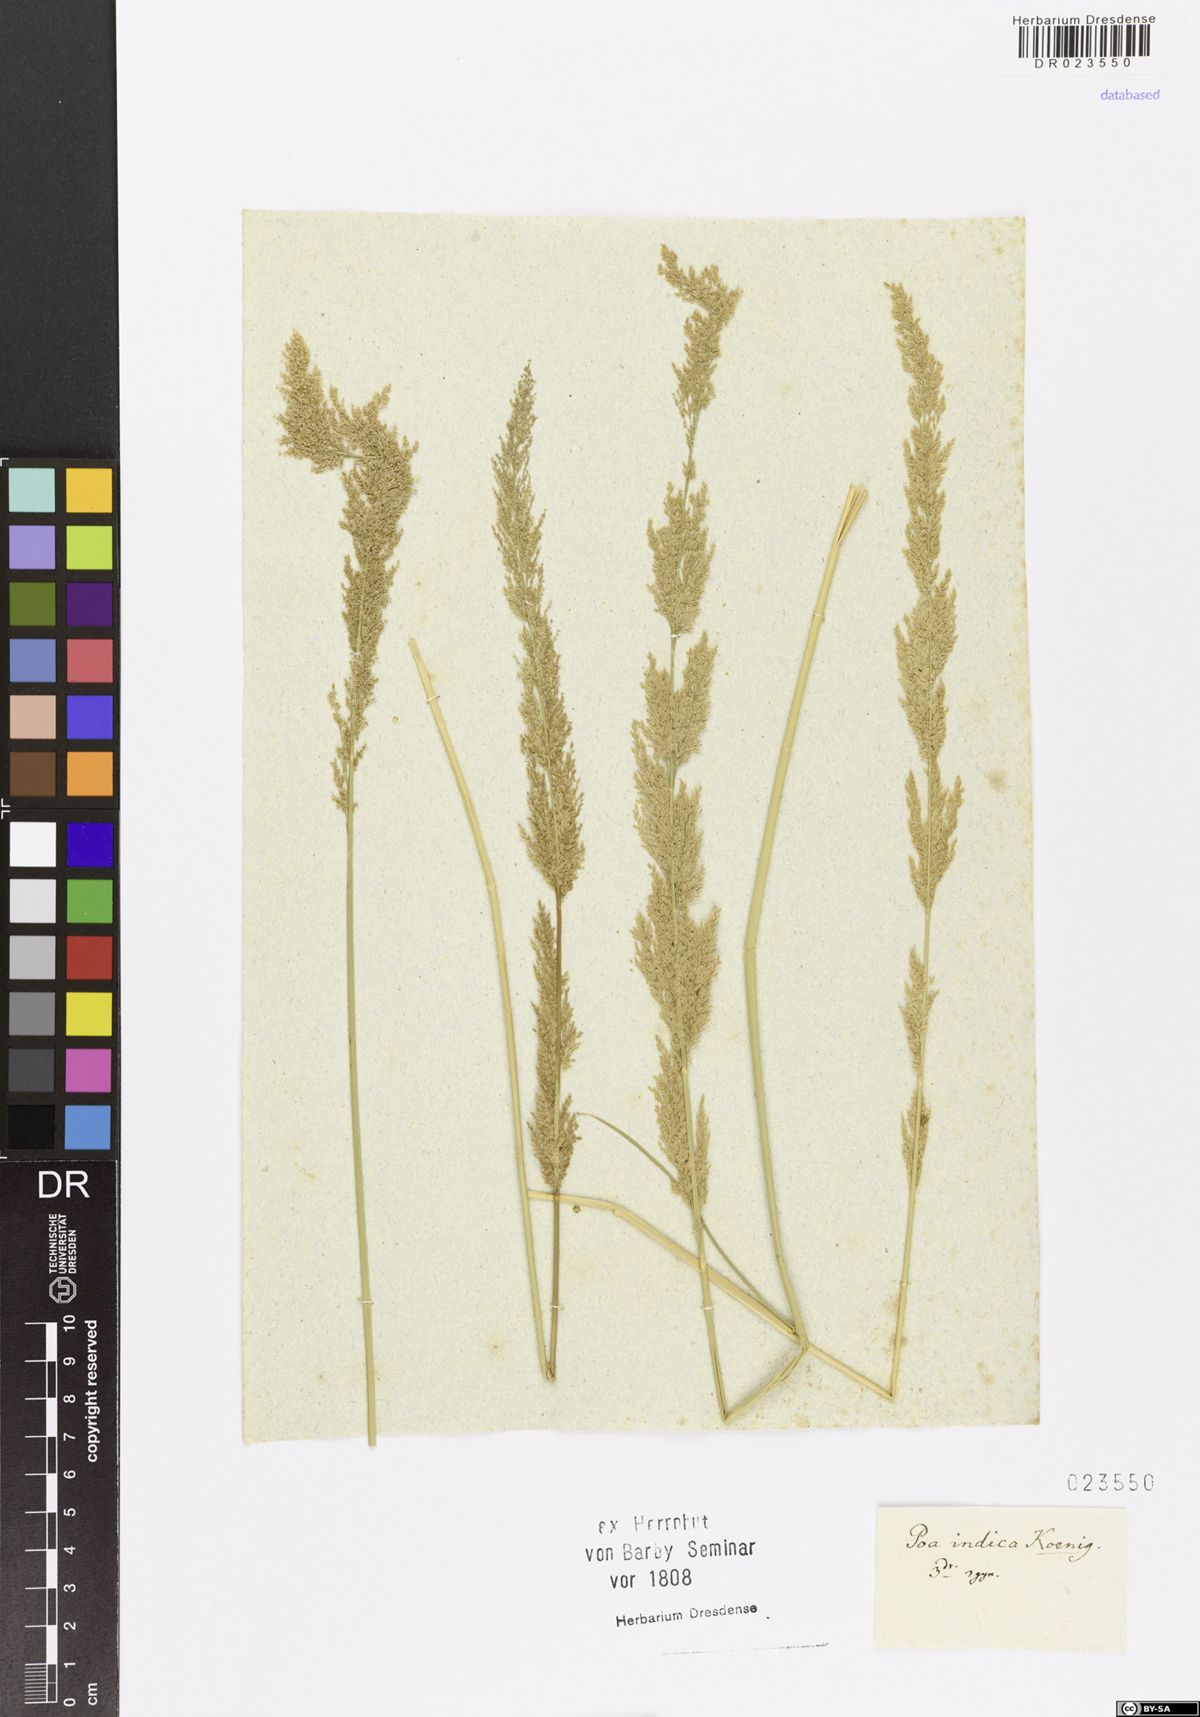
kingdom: Plantae
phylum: Tracheophyta
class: Liliopsida
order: Poales
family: Poaceae
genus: Eragrostis
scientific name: Eragrostis
